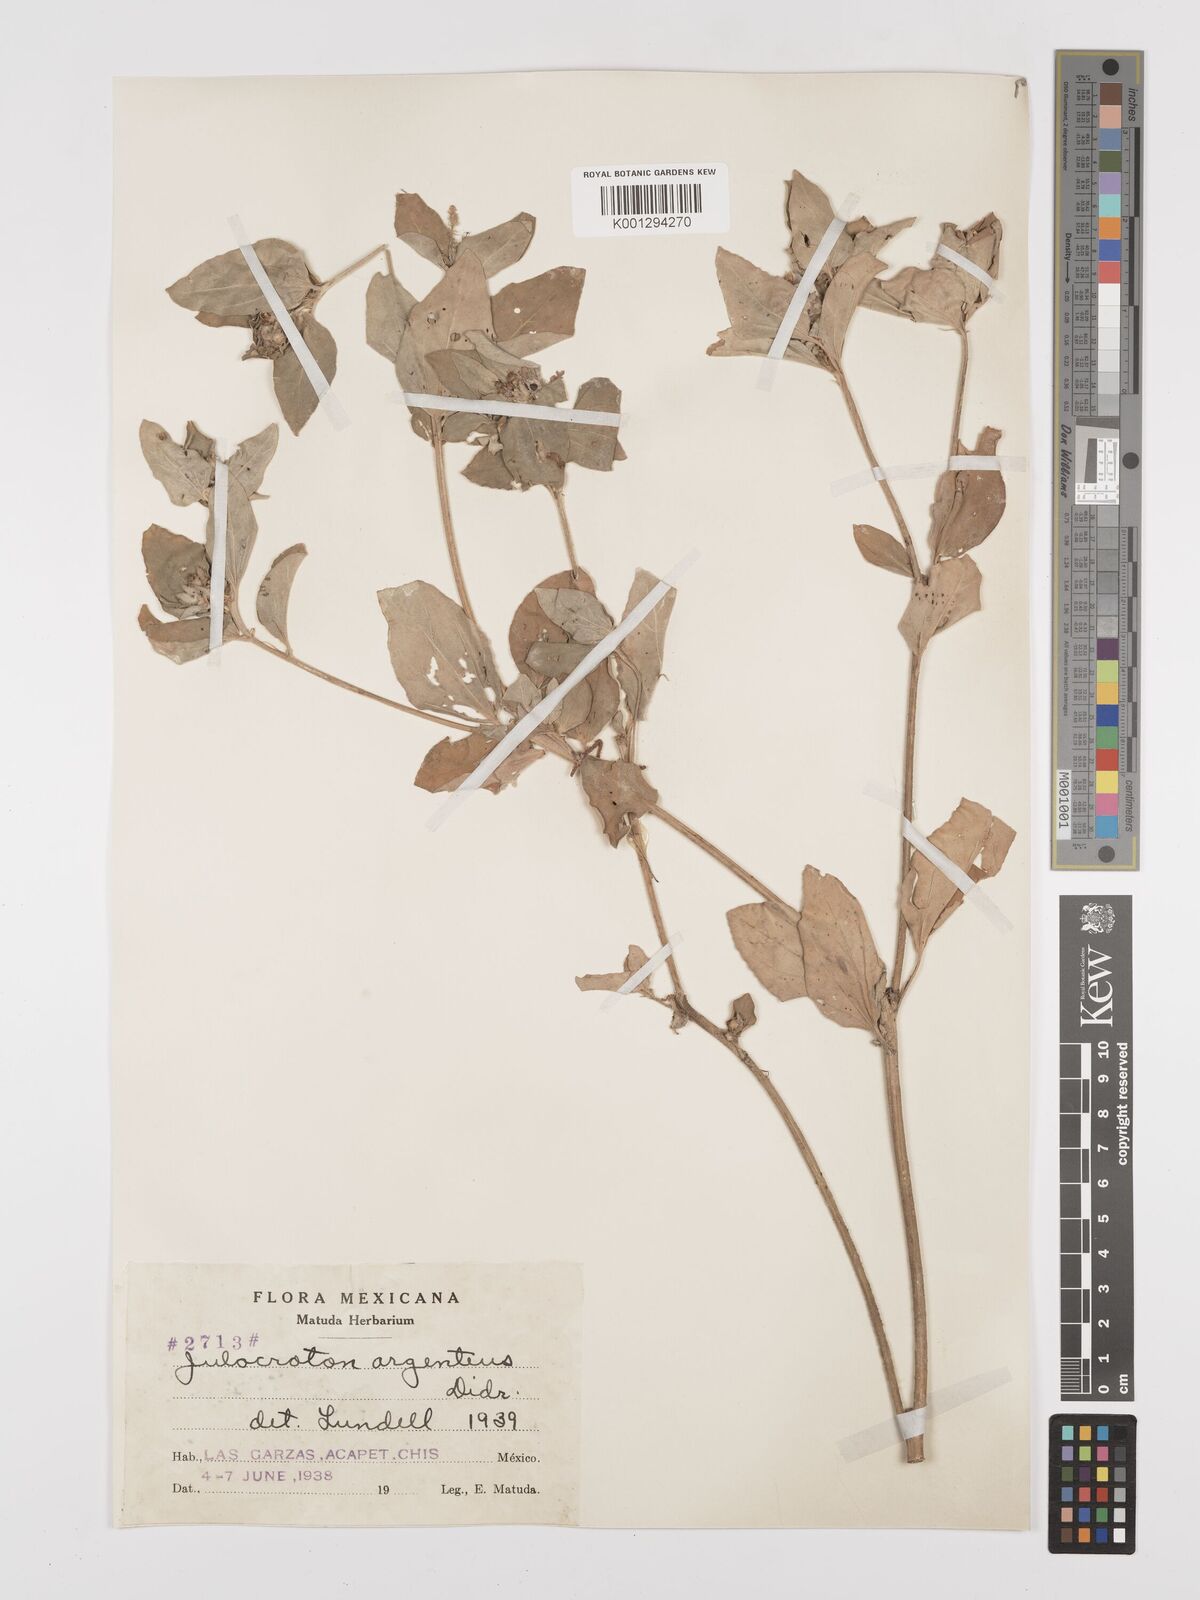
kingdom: Plantae
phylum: Tracheophyta
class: Magnoliopsida
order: Malpighiales
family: Euphorbiaceae
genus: Croton
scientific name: Croton argenteus
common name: Silver july croton
